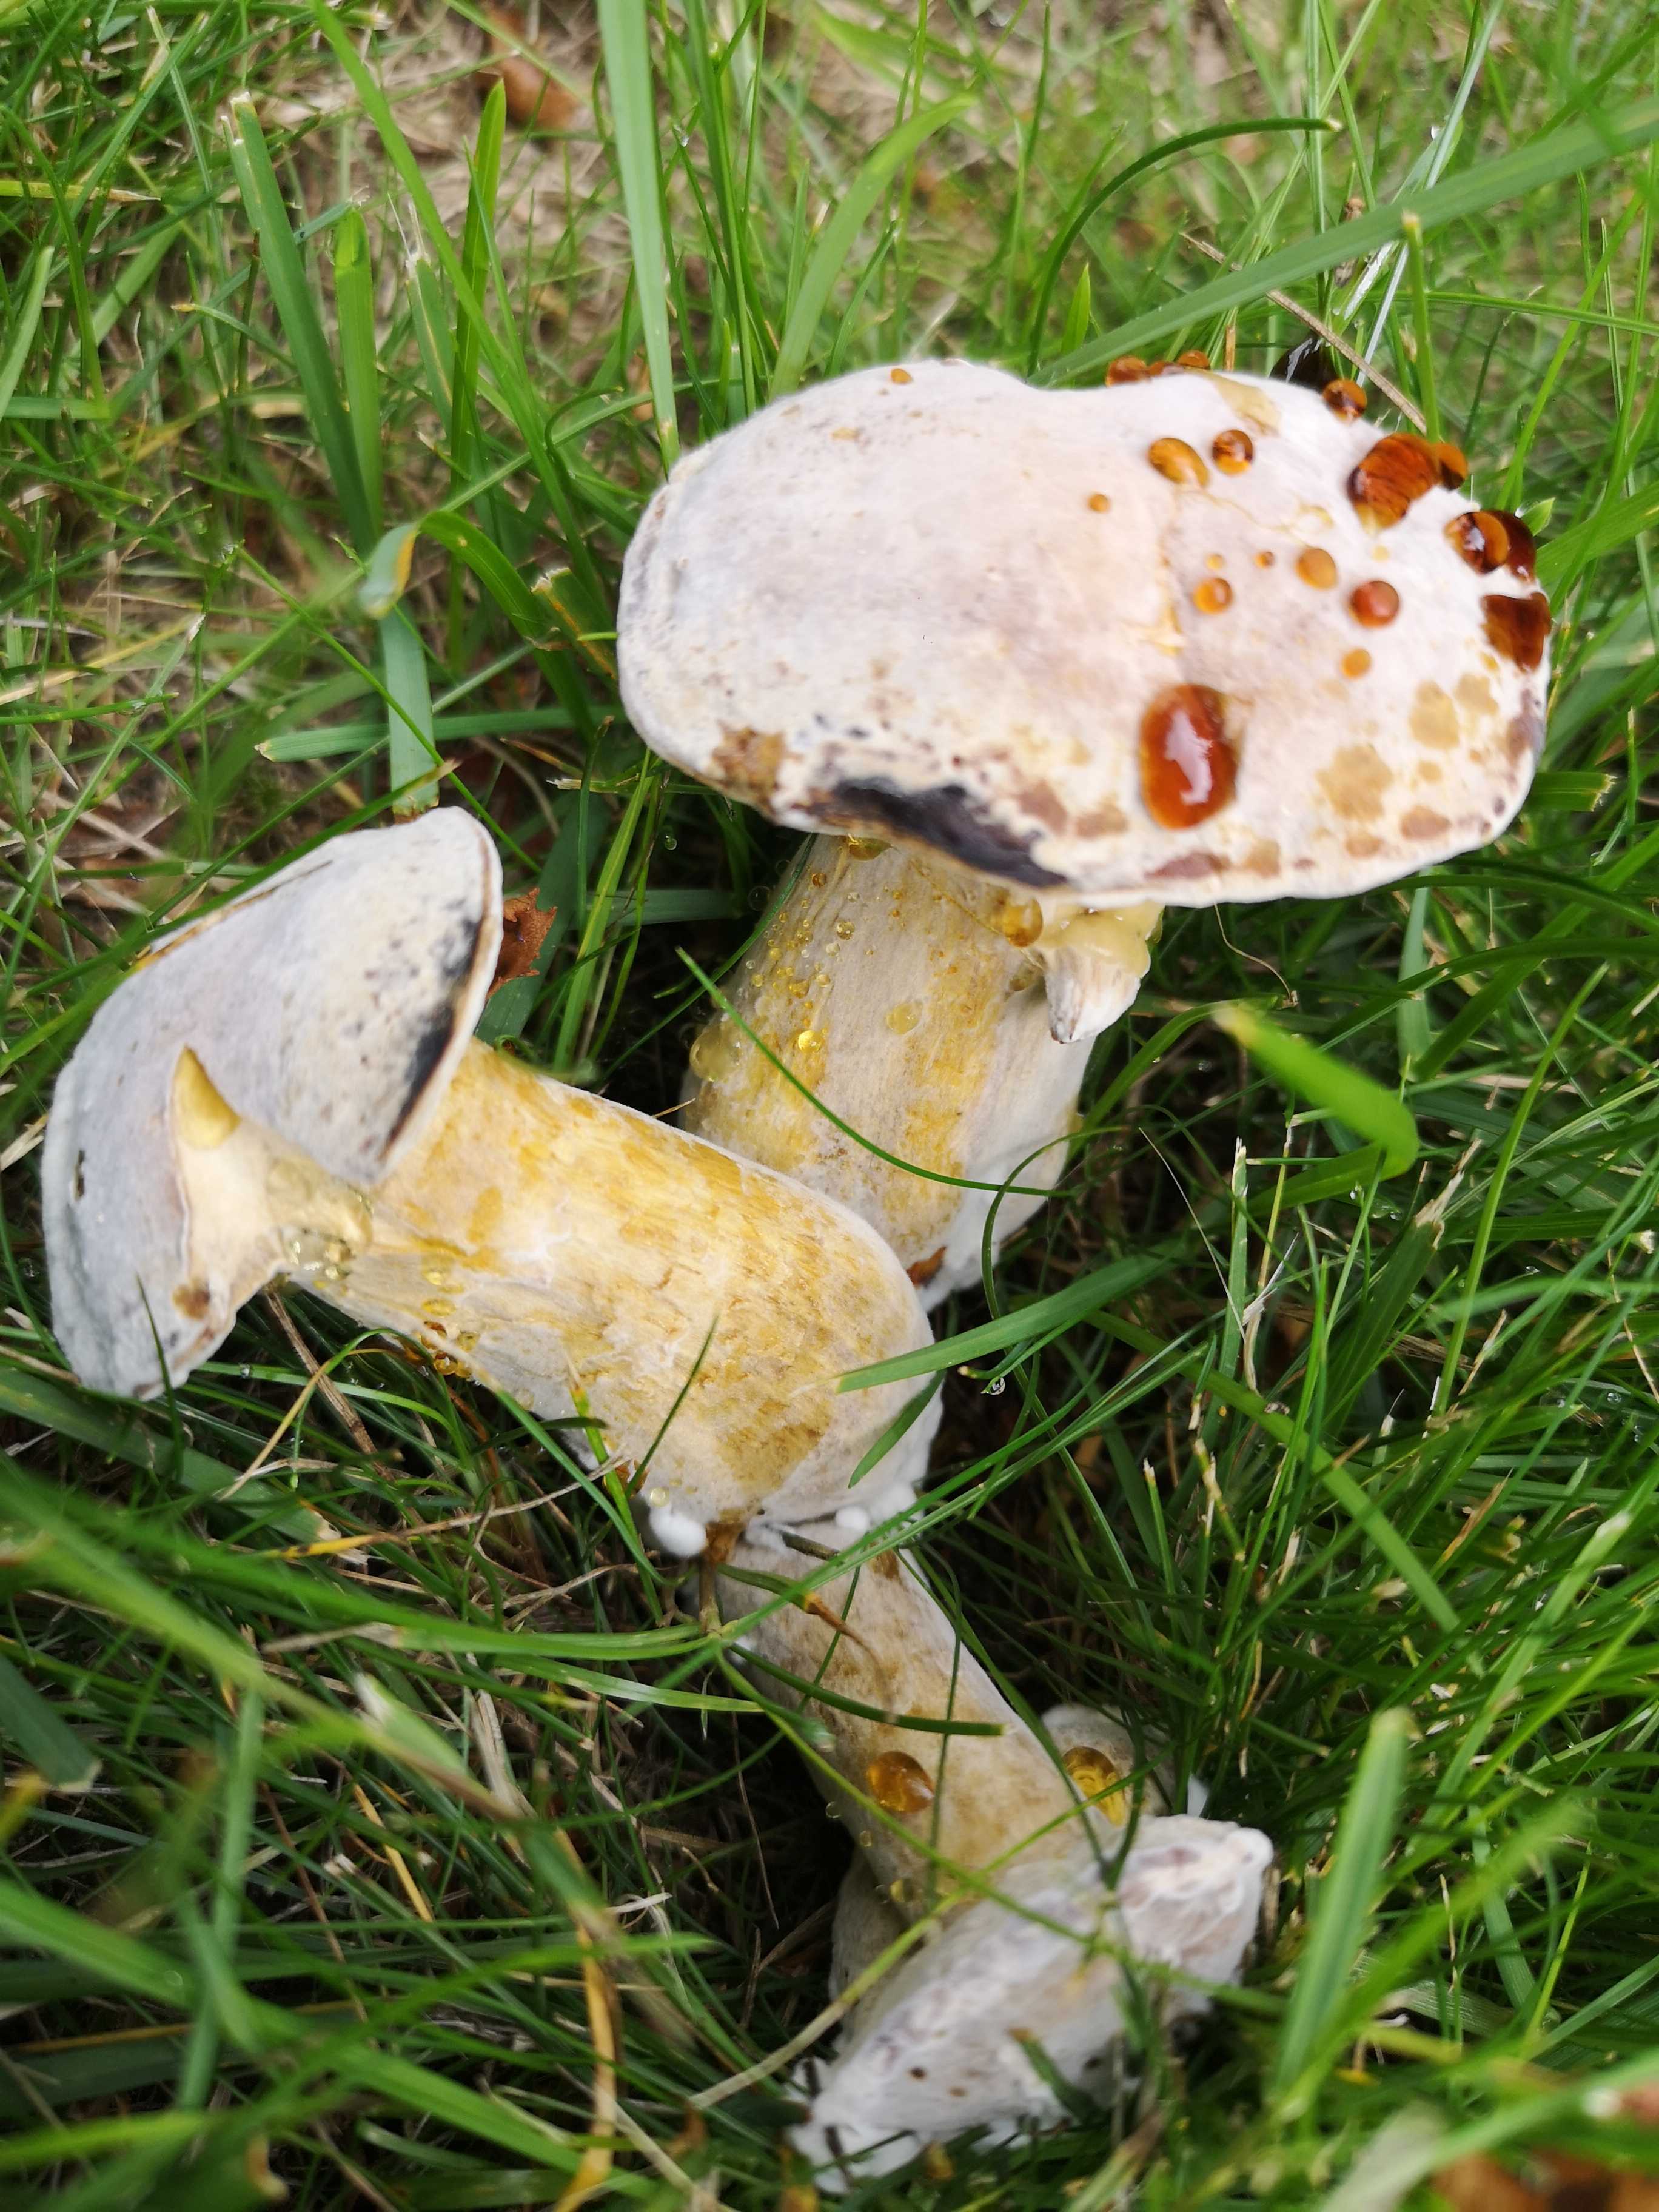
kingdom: Fungi
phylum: Ascomycota
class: Sordariomycetes
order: Hypocreales
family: Hypocreaceae
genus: Hypomyces
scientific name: Hypomyces microspermus
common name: dværgrørhat-snylteskorpe
